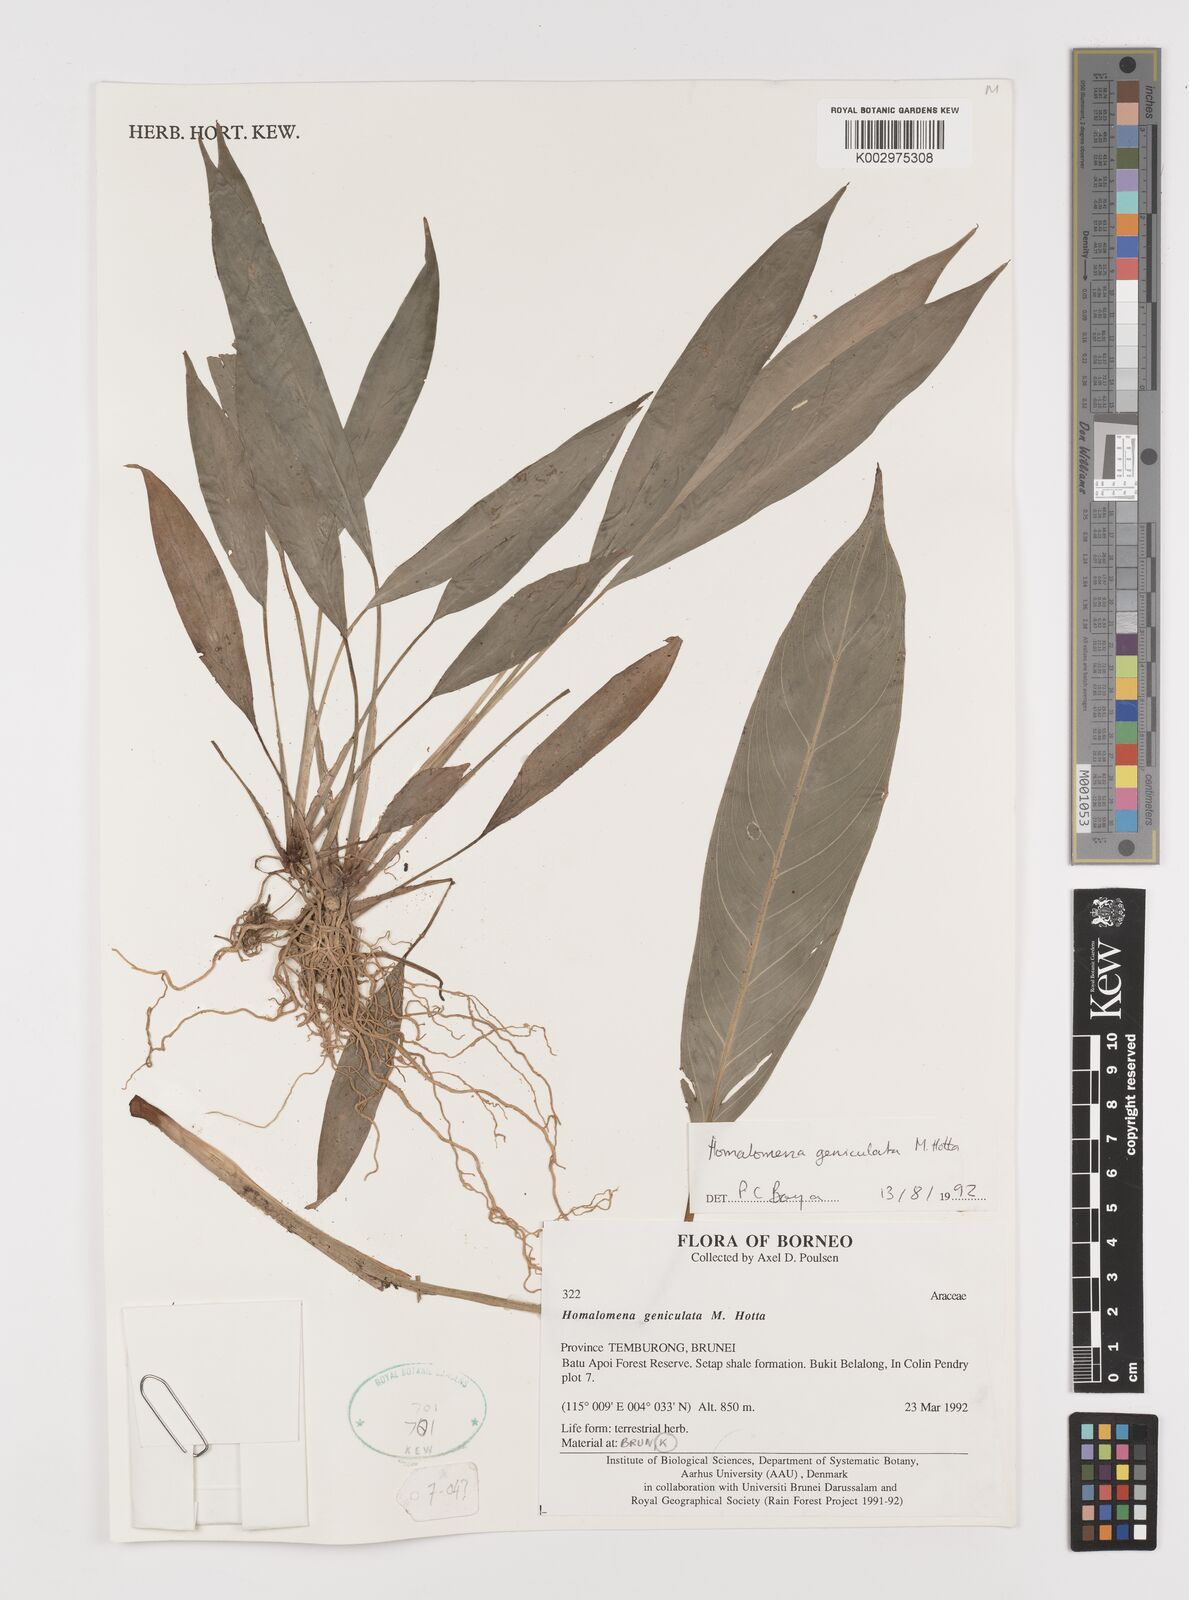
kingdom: Plantae
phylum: Tracheophyta
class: Liliopsida
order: Alismatales
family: Araceae
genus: Homalomena
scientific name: Homalomena punctulata
